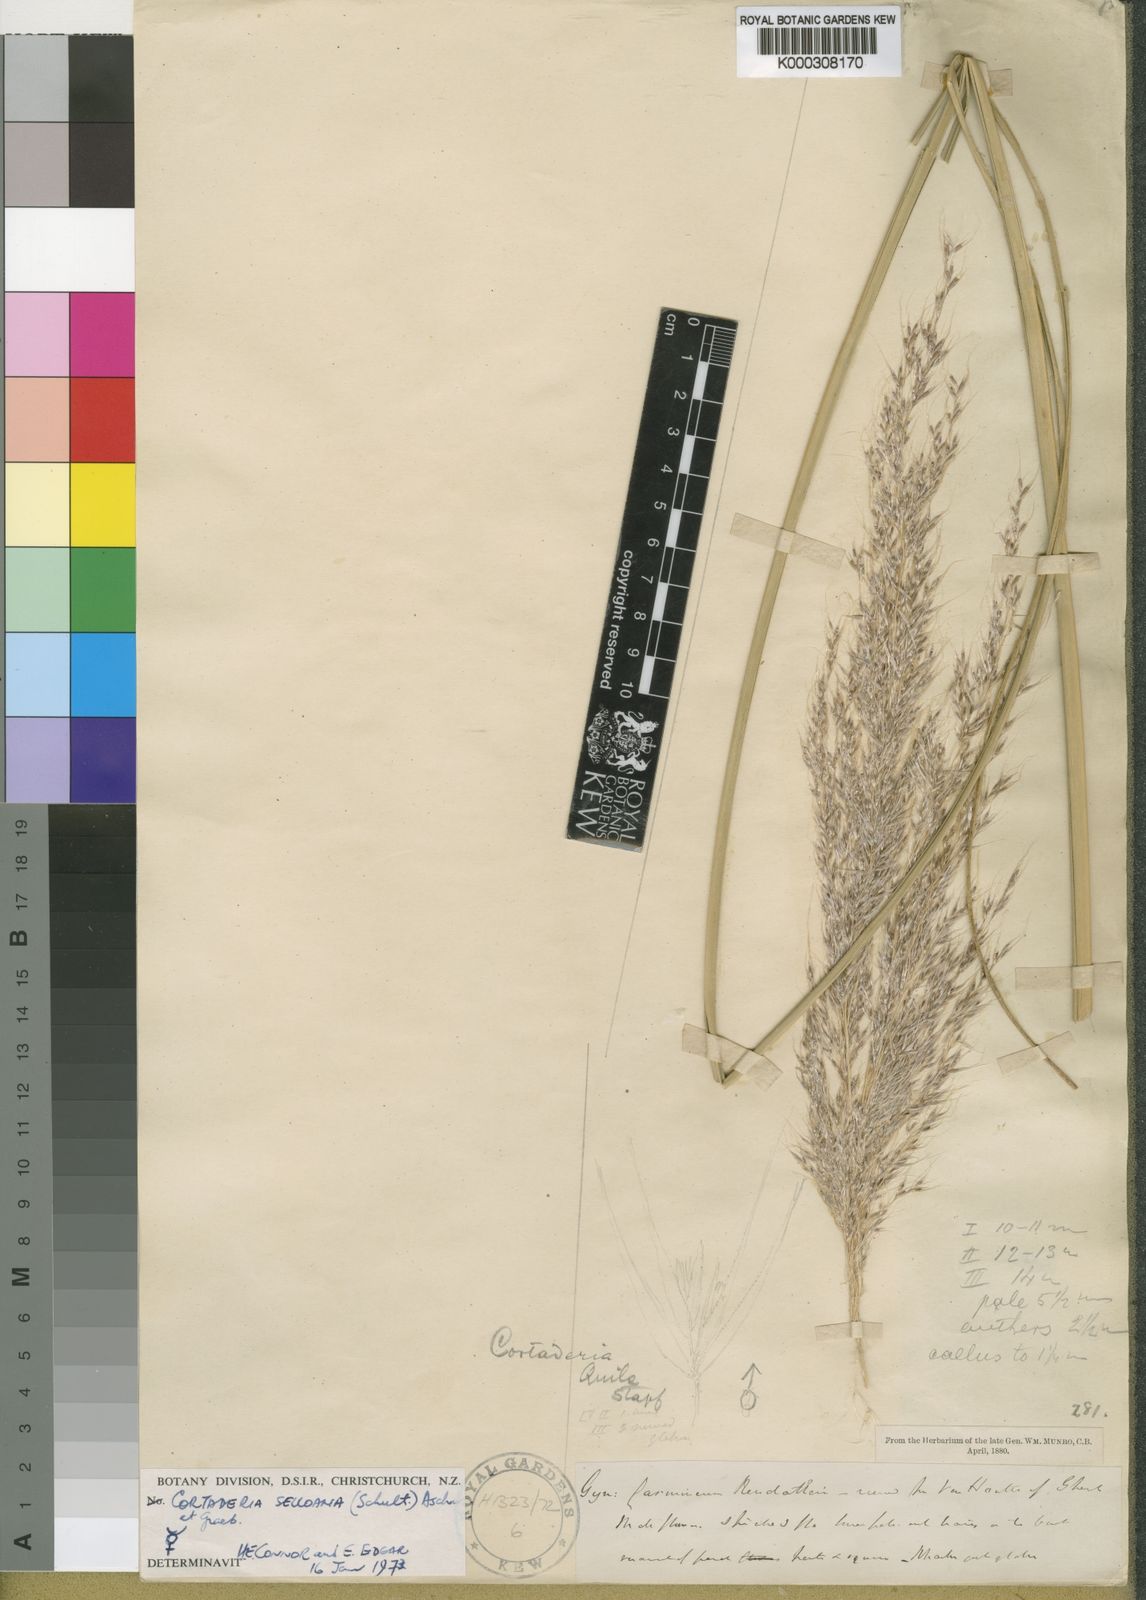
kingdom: Plantae
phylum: Tracheophyta
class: Liliopsida
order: Poales
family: Poaceae
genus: Cortaderia
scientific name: Cortaderia jubata
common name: Purple pampas grass
